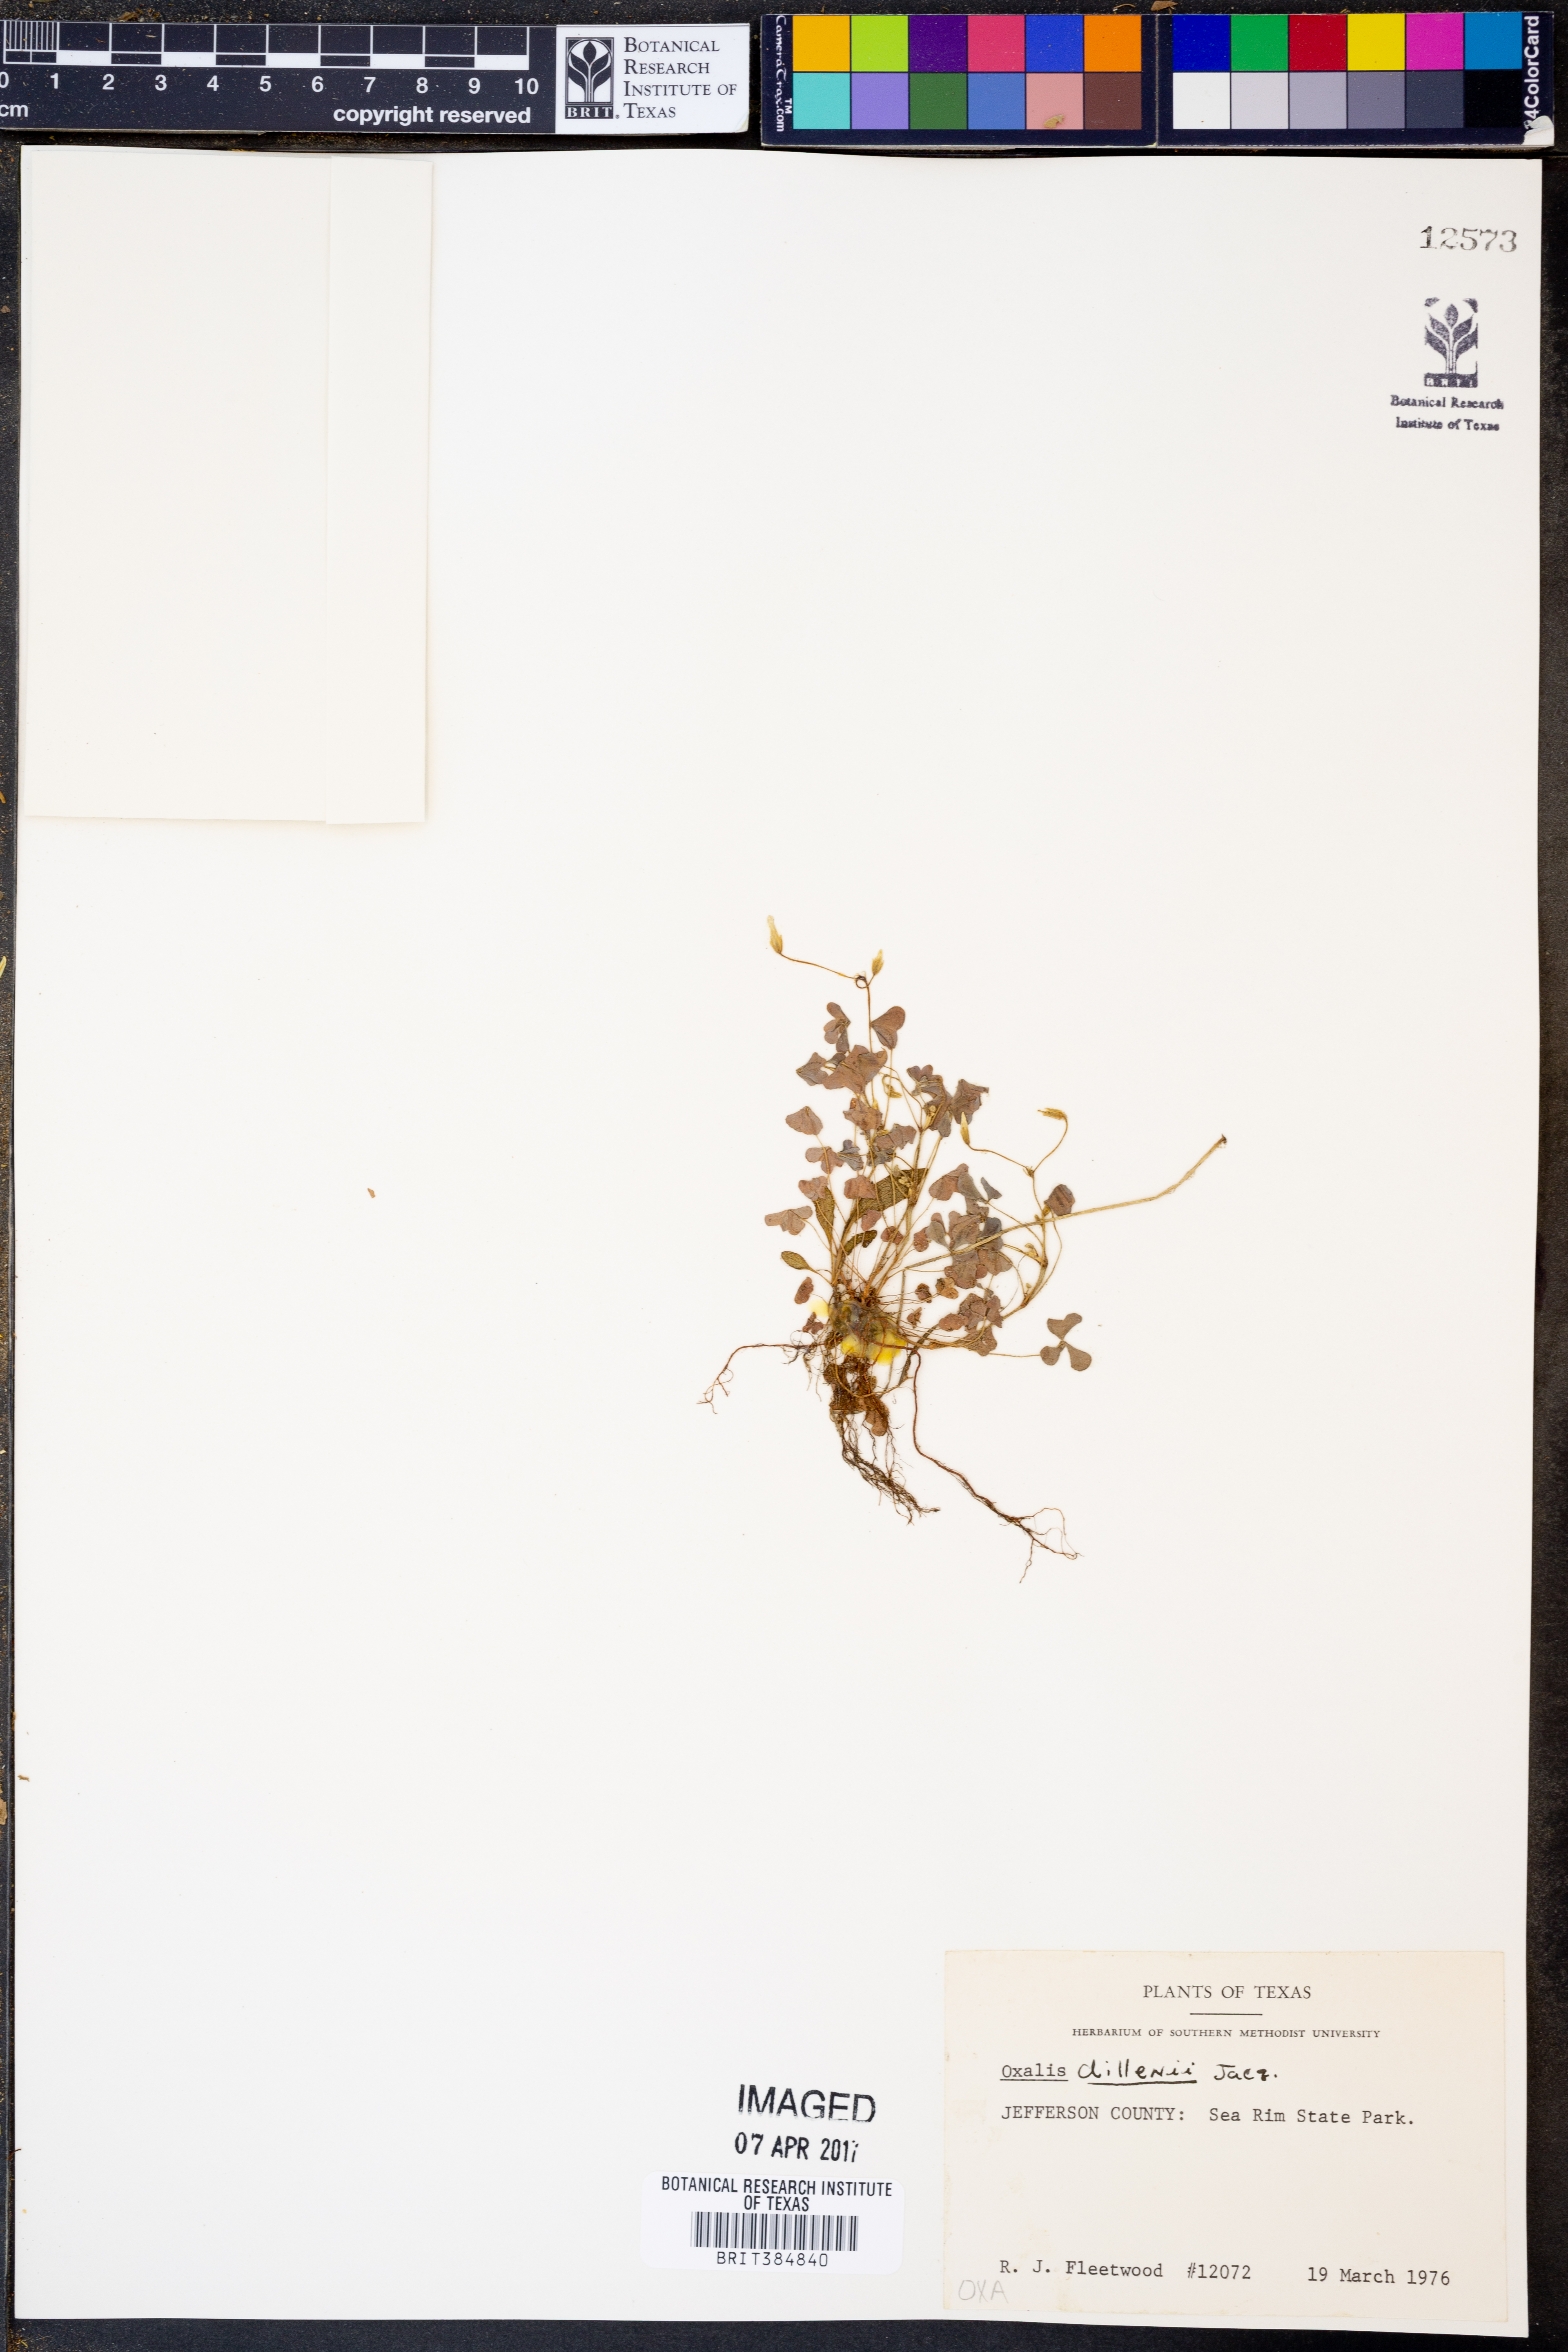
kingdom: Plantae
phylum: Tracheophyta
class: Magnoliopsida
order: Oxalidales
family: Oxalidaceae
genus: Oxalis
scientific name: Oxalis dillenii
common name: Sussex yellow-sorrel
